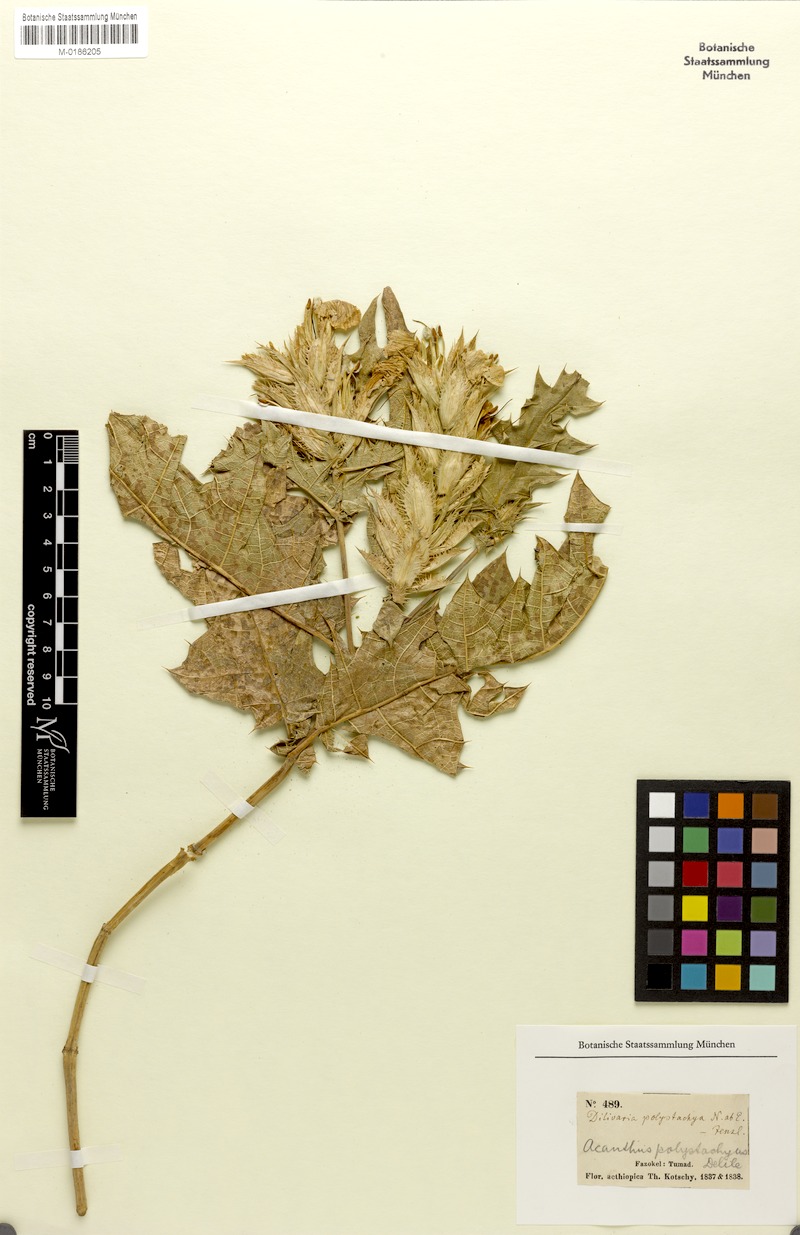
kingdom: Plantae
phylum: Tracheophyta
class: Magnoliopsida
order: Lamiales
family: Acanthaceae
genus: Acanthus
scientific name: Acanthus polystachyus
